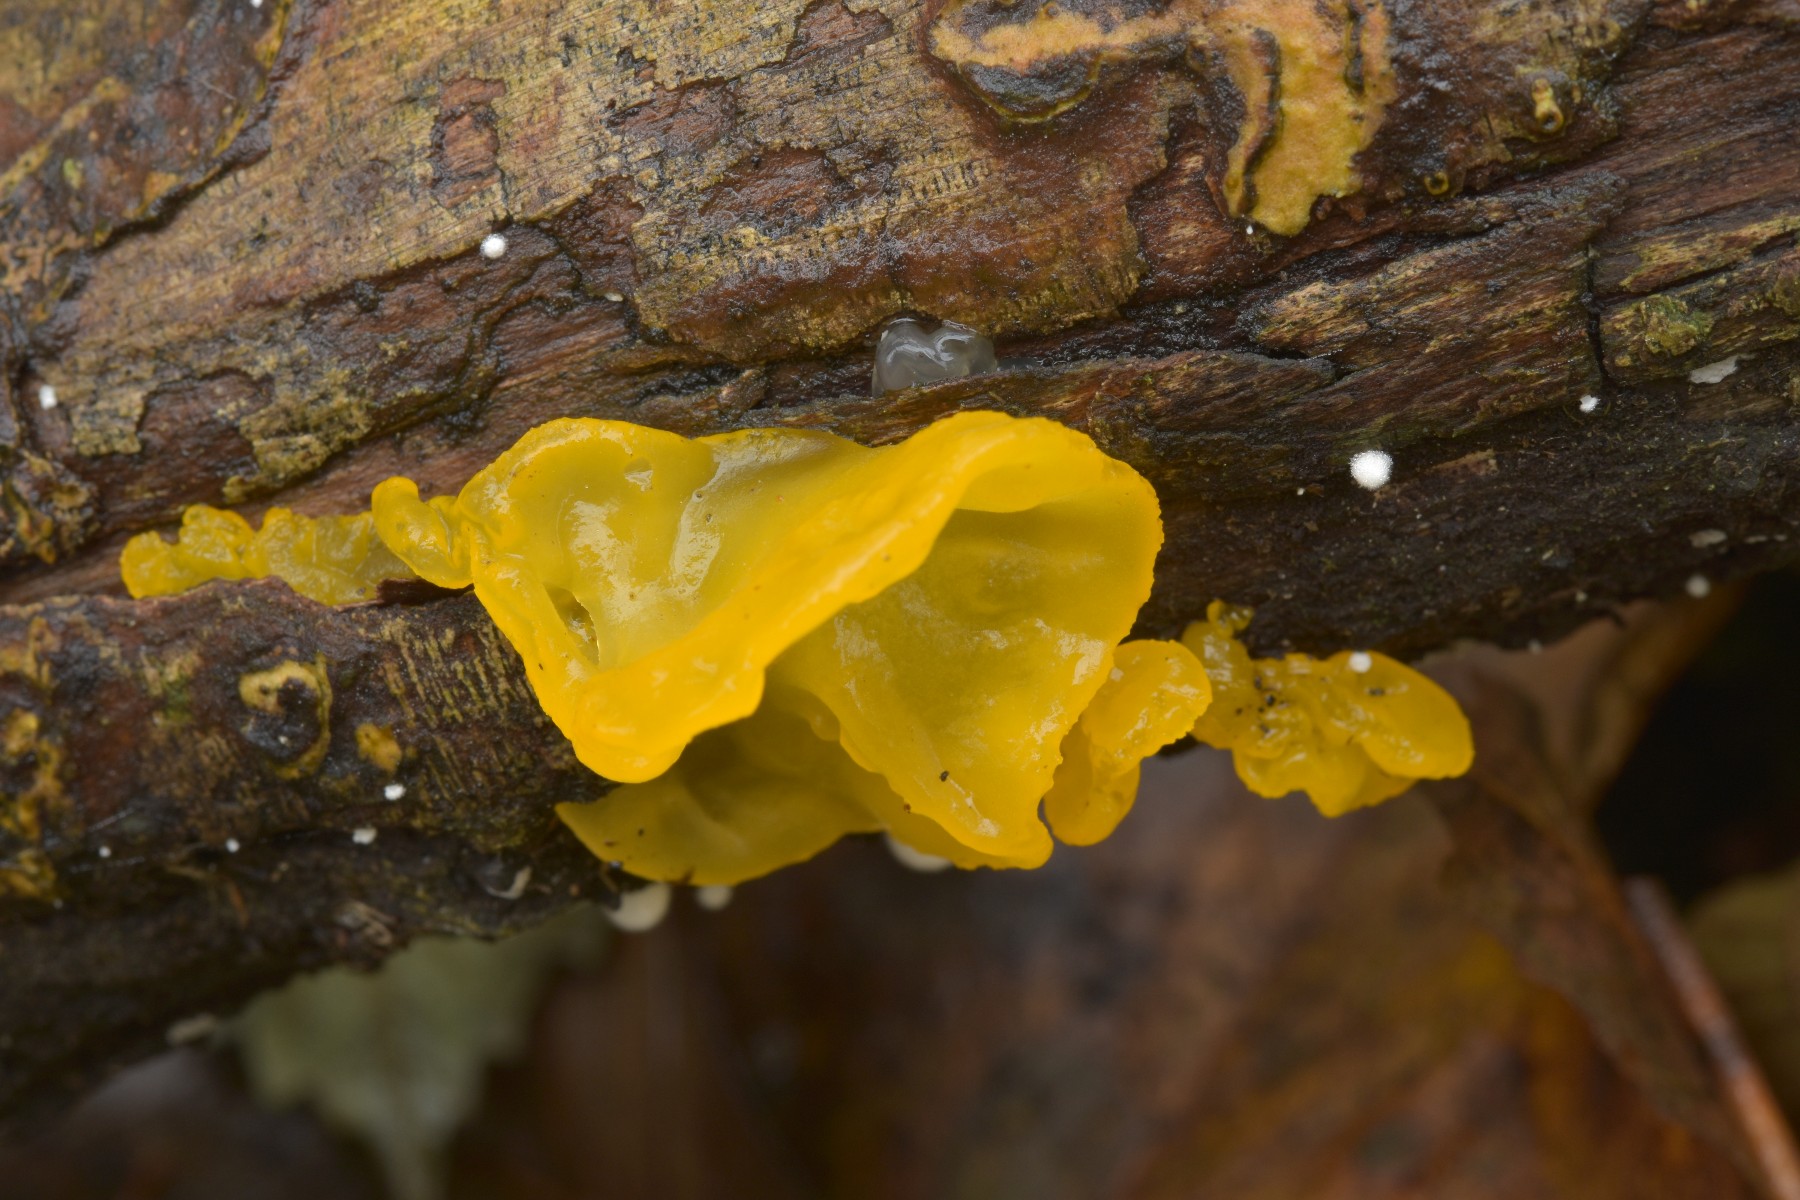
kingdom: Fungi
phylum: Basidiomycota
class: Tremellomycetes
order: Tremellales
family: Tremellaceae
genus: Tremella
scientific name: Tremella mesenterica
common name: gul bævresvamp
